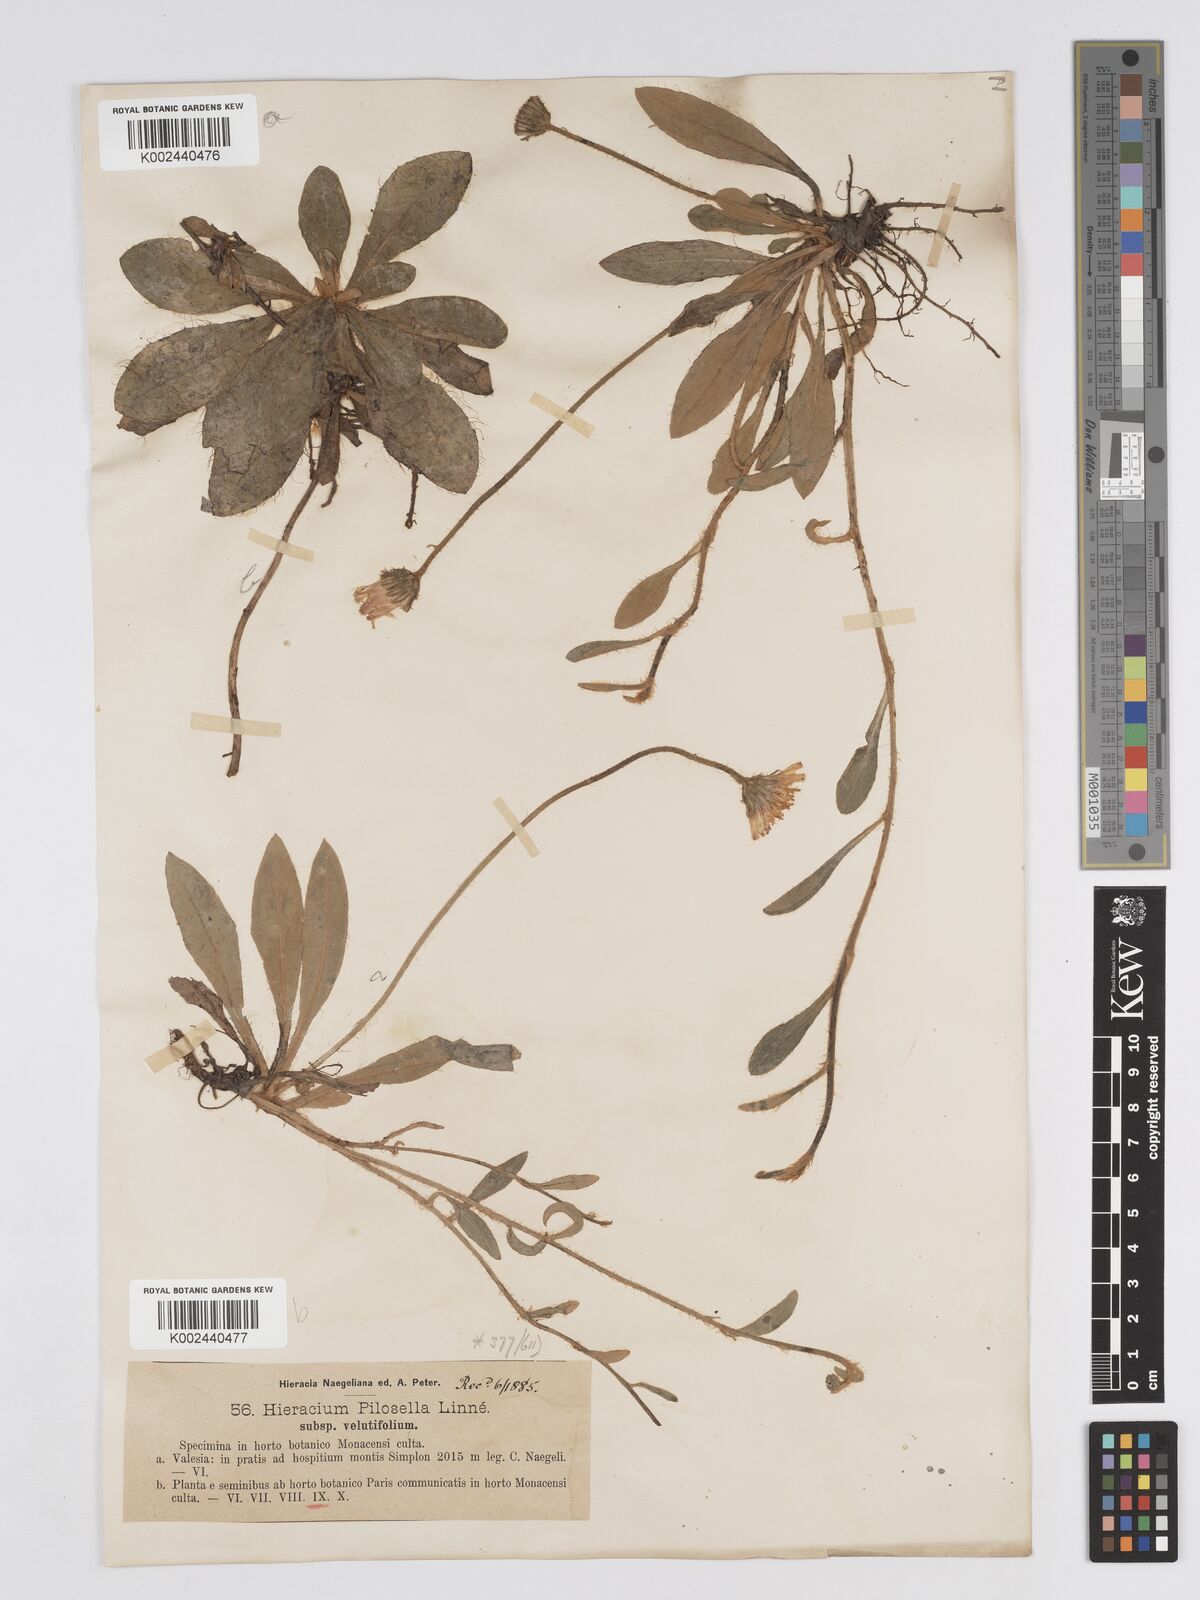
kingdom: Plantae
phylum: Tracheophyta
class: Magnoliopsida
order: Asterales
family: Asteraceae
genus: Pilosella
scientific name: Pilosella velutina
